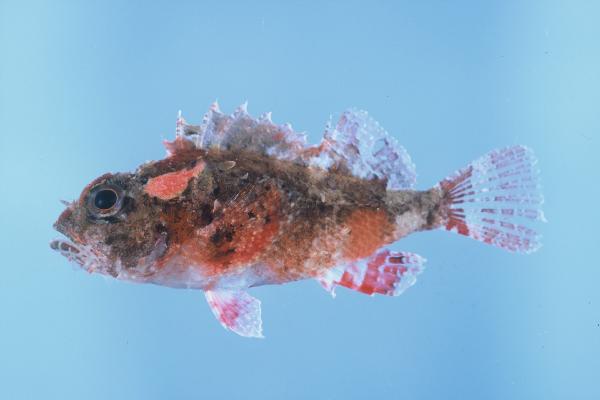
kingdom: Animalia
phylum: Chordata
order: Scorpaeniformes
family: Scorpaenidae
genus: Scorpaenopsis
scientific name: Scorpaenopsis gilchristi
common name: Gilchrist's scorpionfish
